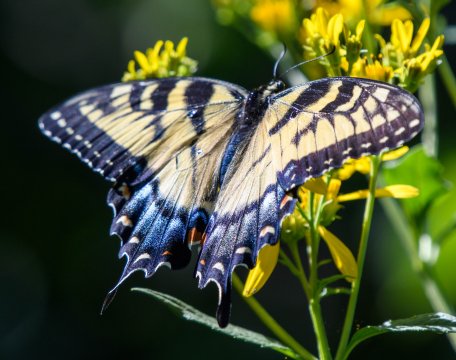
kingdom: Animalia
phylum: Arthropoda
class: Insecta
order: Lepidoptera
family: Papilionidae
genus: Pterourus
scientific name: Pterourus glaucus
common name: Eastern Tiger Swallowtail
